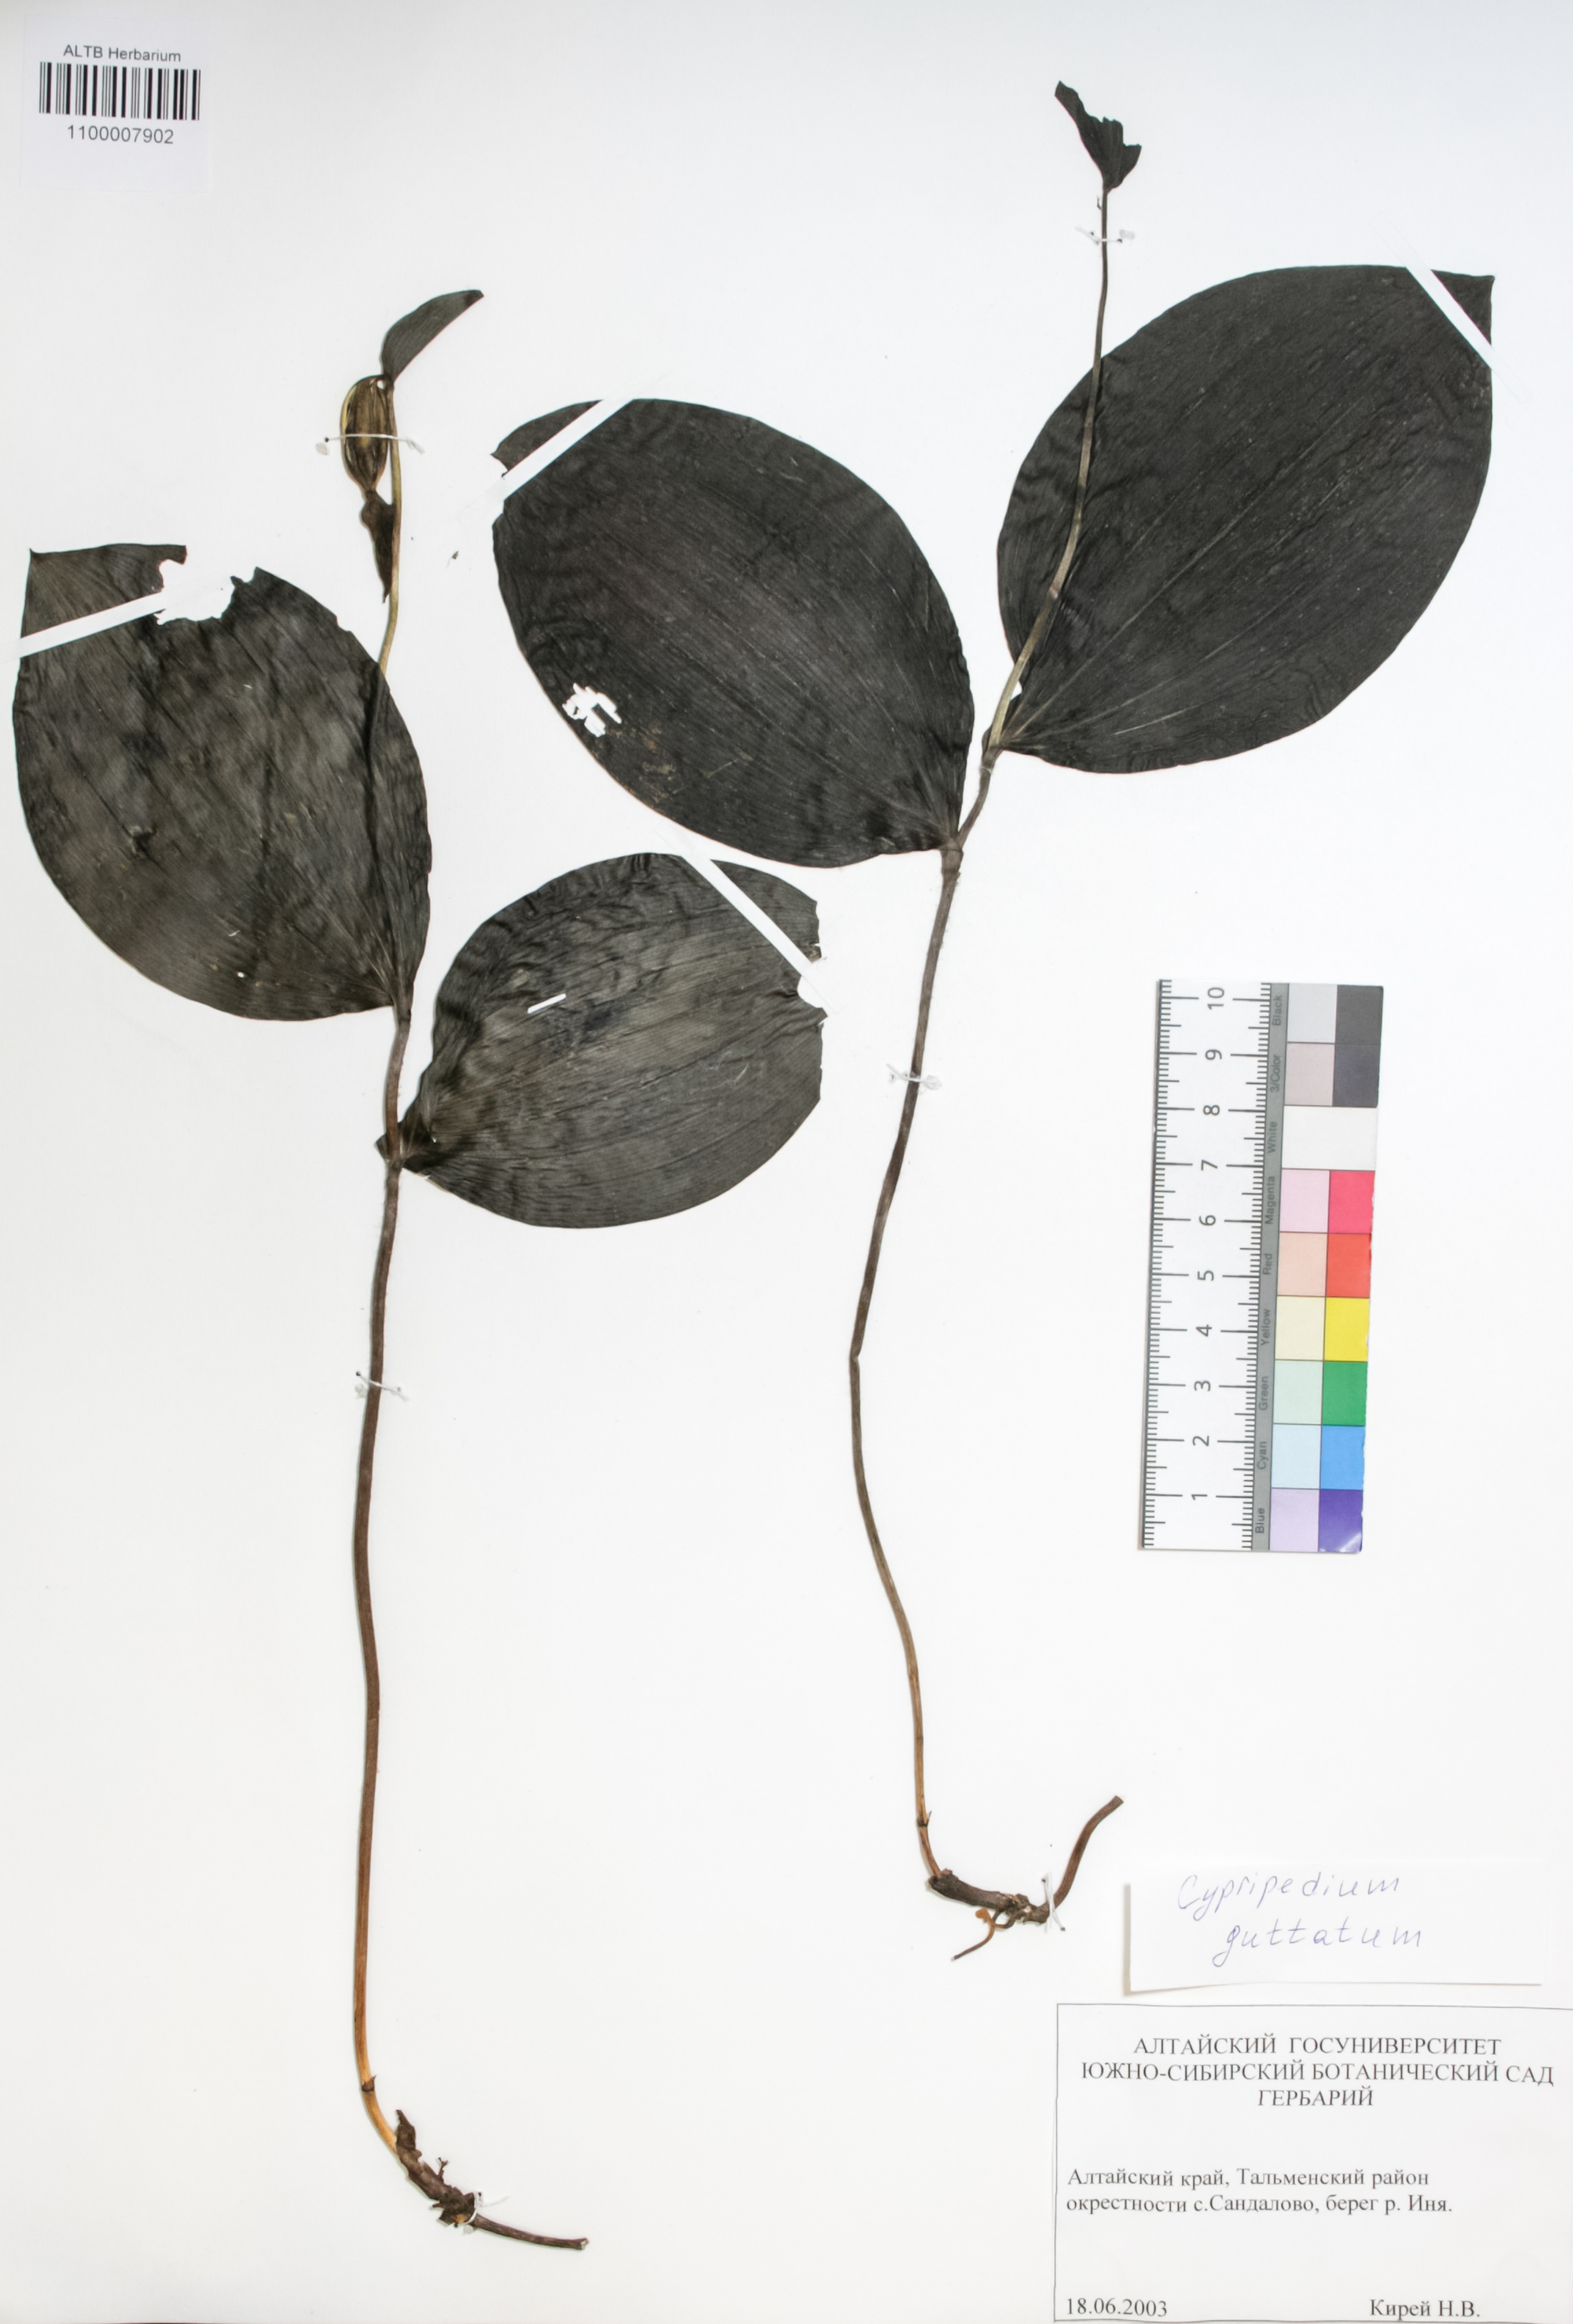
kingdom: Plantae
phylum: Tracheophyta
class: Liliopsida
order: Asparagales
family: Orchidaceae
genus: Cypripedium
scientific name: Cypripedium guttatum
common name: Pink lady slipper
